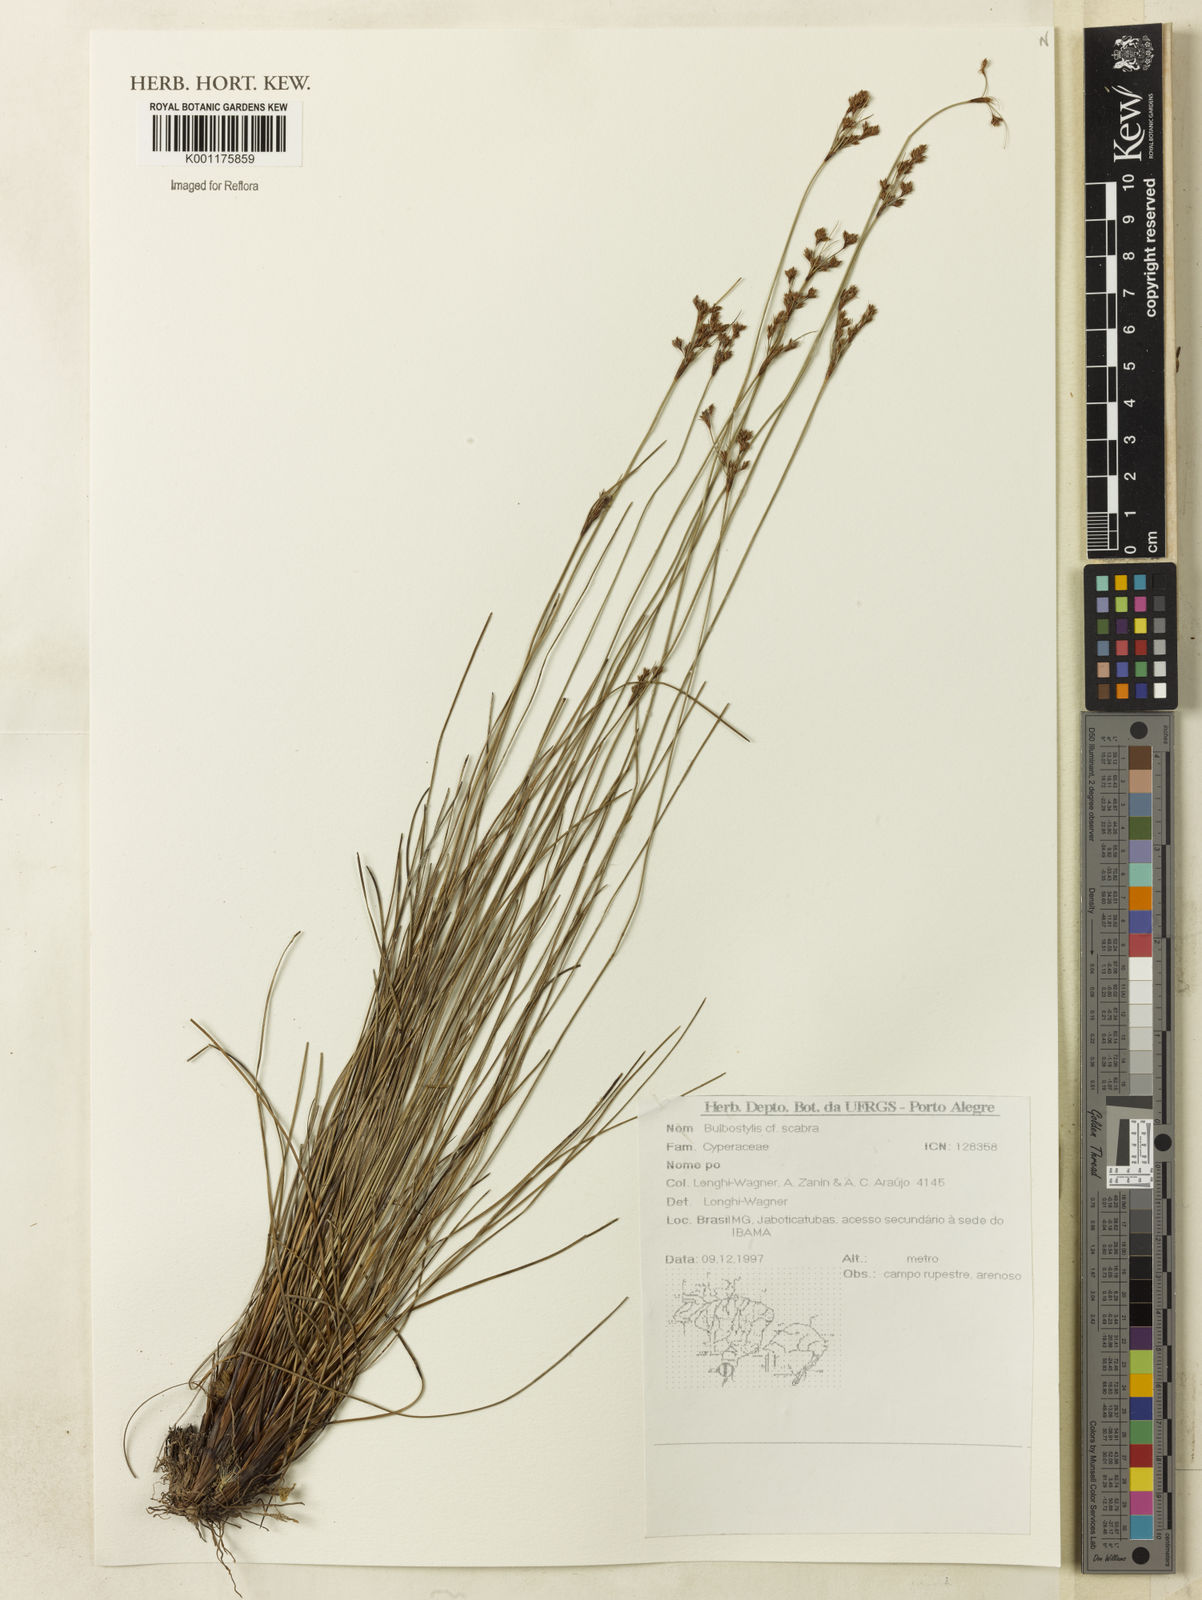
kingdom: Plantae
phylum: Tracheophyta
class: Liliopsida
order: Poales
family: Cyperaceae
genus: Bulbostylis
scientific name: Bulbostylis scabra
